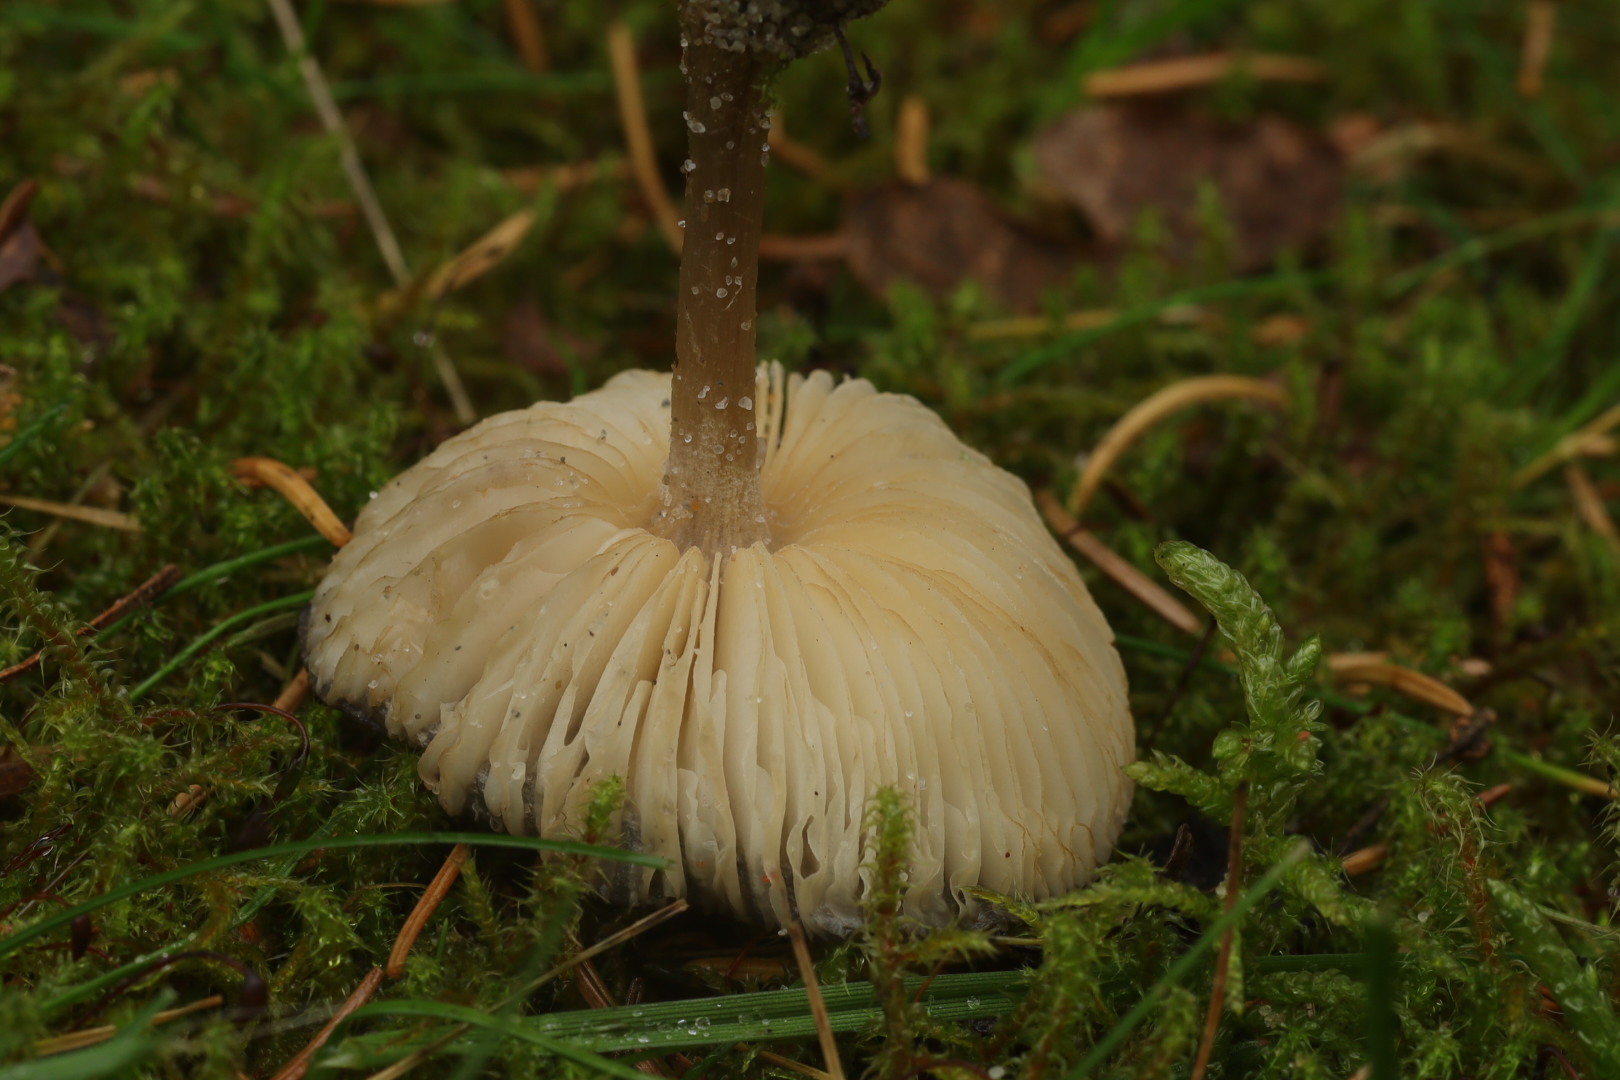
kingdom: Fungi
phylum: Basidiomycota
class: Agaricomycetes
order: Agaricales
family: Tricholomataceae
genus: Melanoleuca
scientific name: Melanoleuca
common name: munkehat
